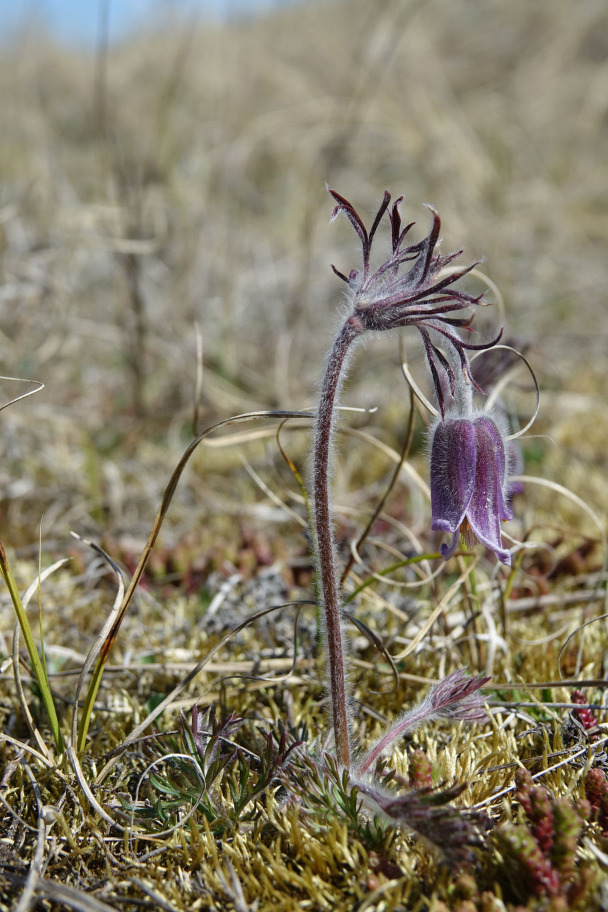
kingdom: Plantae
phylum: Tracheophyta
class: Magnoliopsida
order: Ranunculales
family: Ranunculaceae
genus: Pulsatilla
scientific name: Pulsatilla pratensis
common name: Nikkende kobjælde
